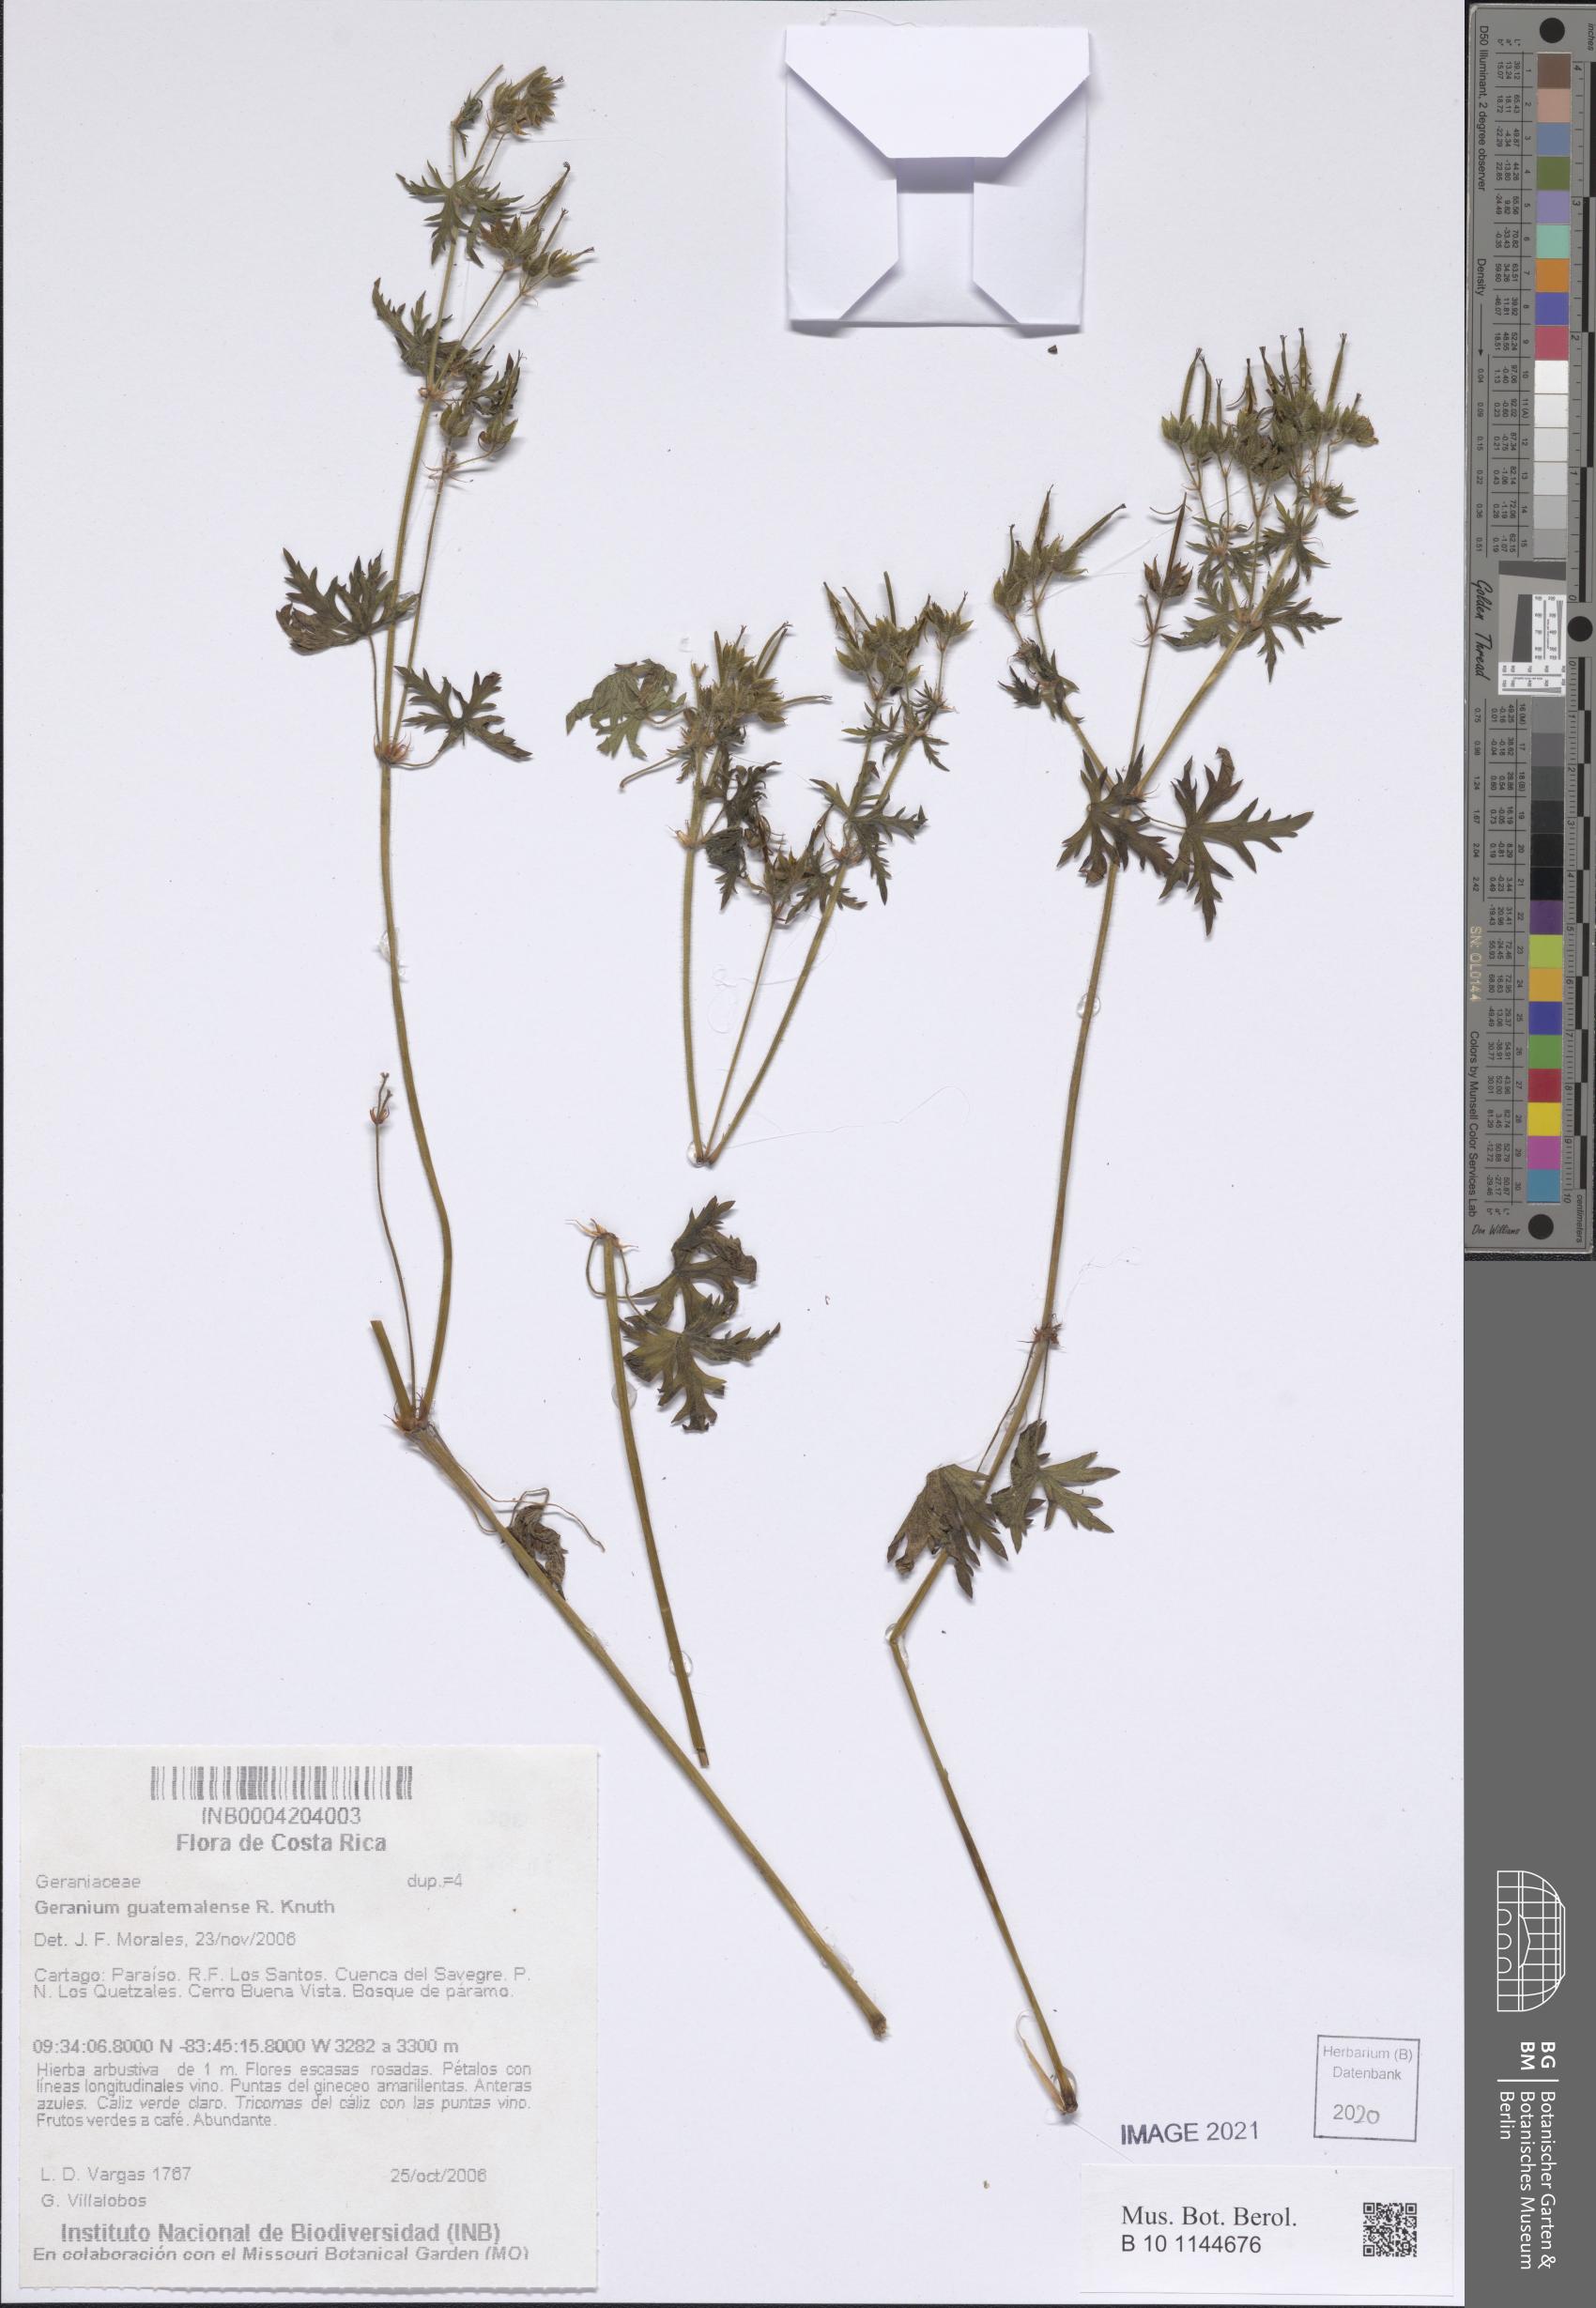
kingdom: Plantae
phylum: Tracheophyta
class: Magnoliopsida
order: Geraniales
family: Geraniaceae
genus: Geranium
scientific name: Geranium seemannii
